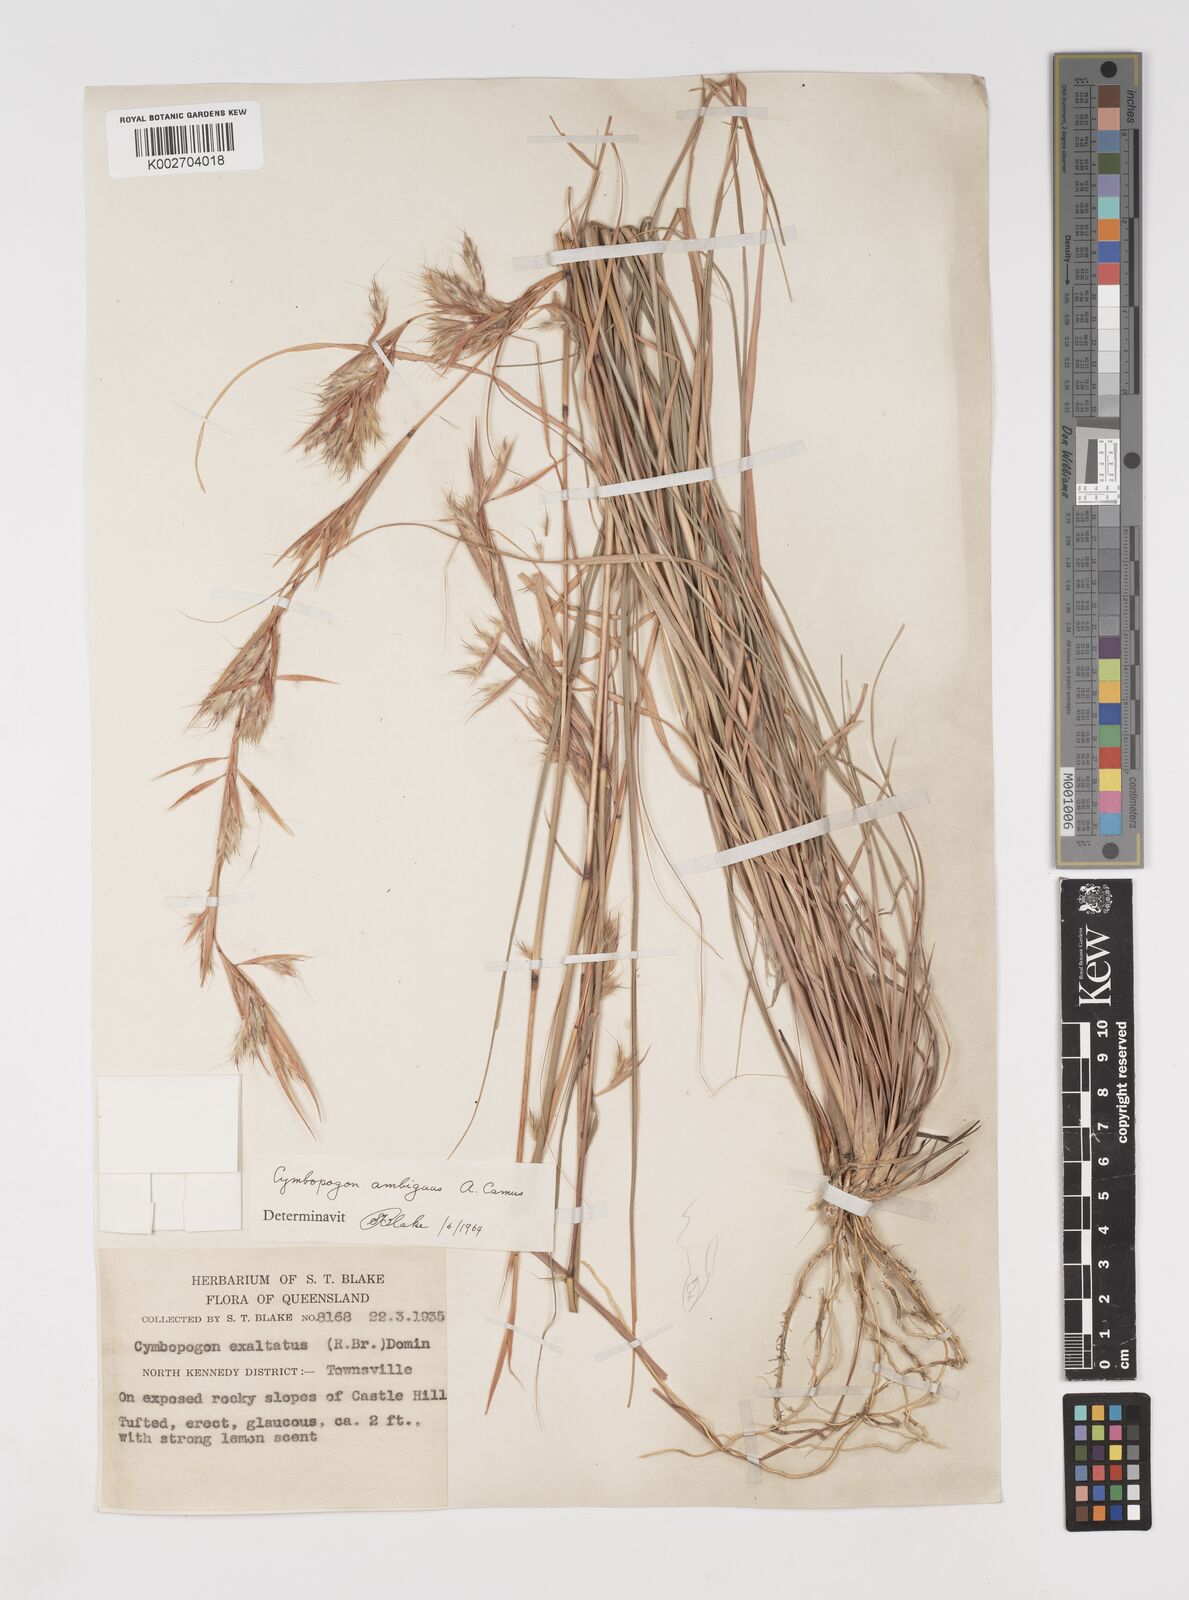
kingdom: Plantae
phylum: Tracheophyta
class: Liliopsida
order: Poales
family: Poaceae
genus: Cymbopogon
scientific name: Cymbopogon ambiguus
